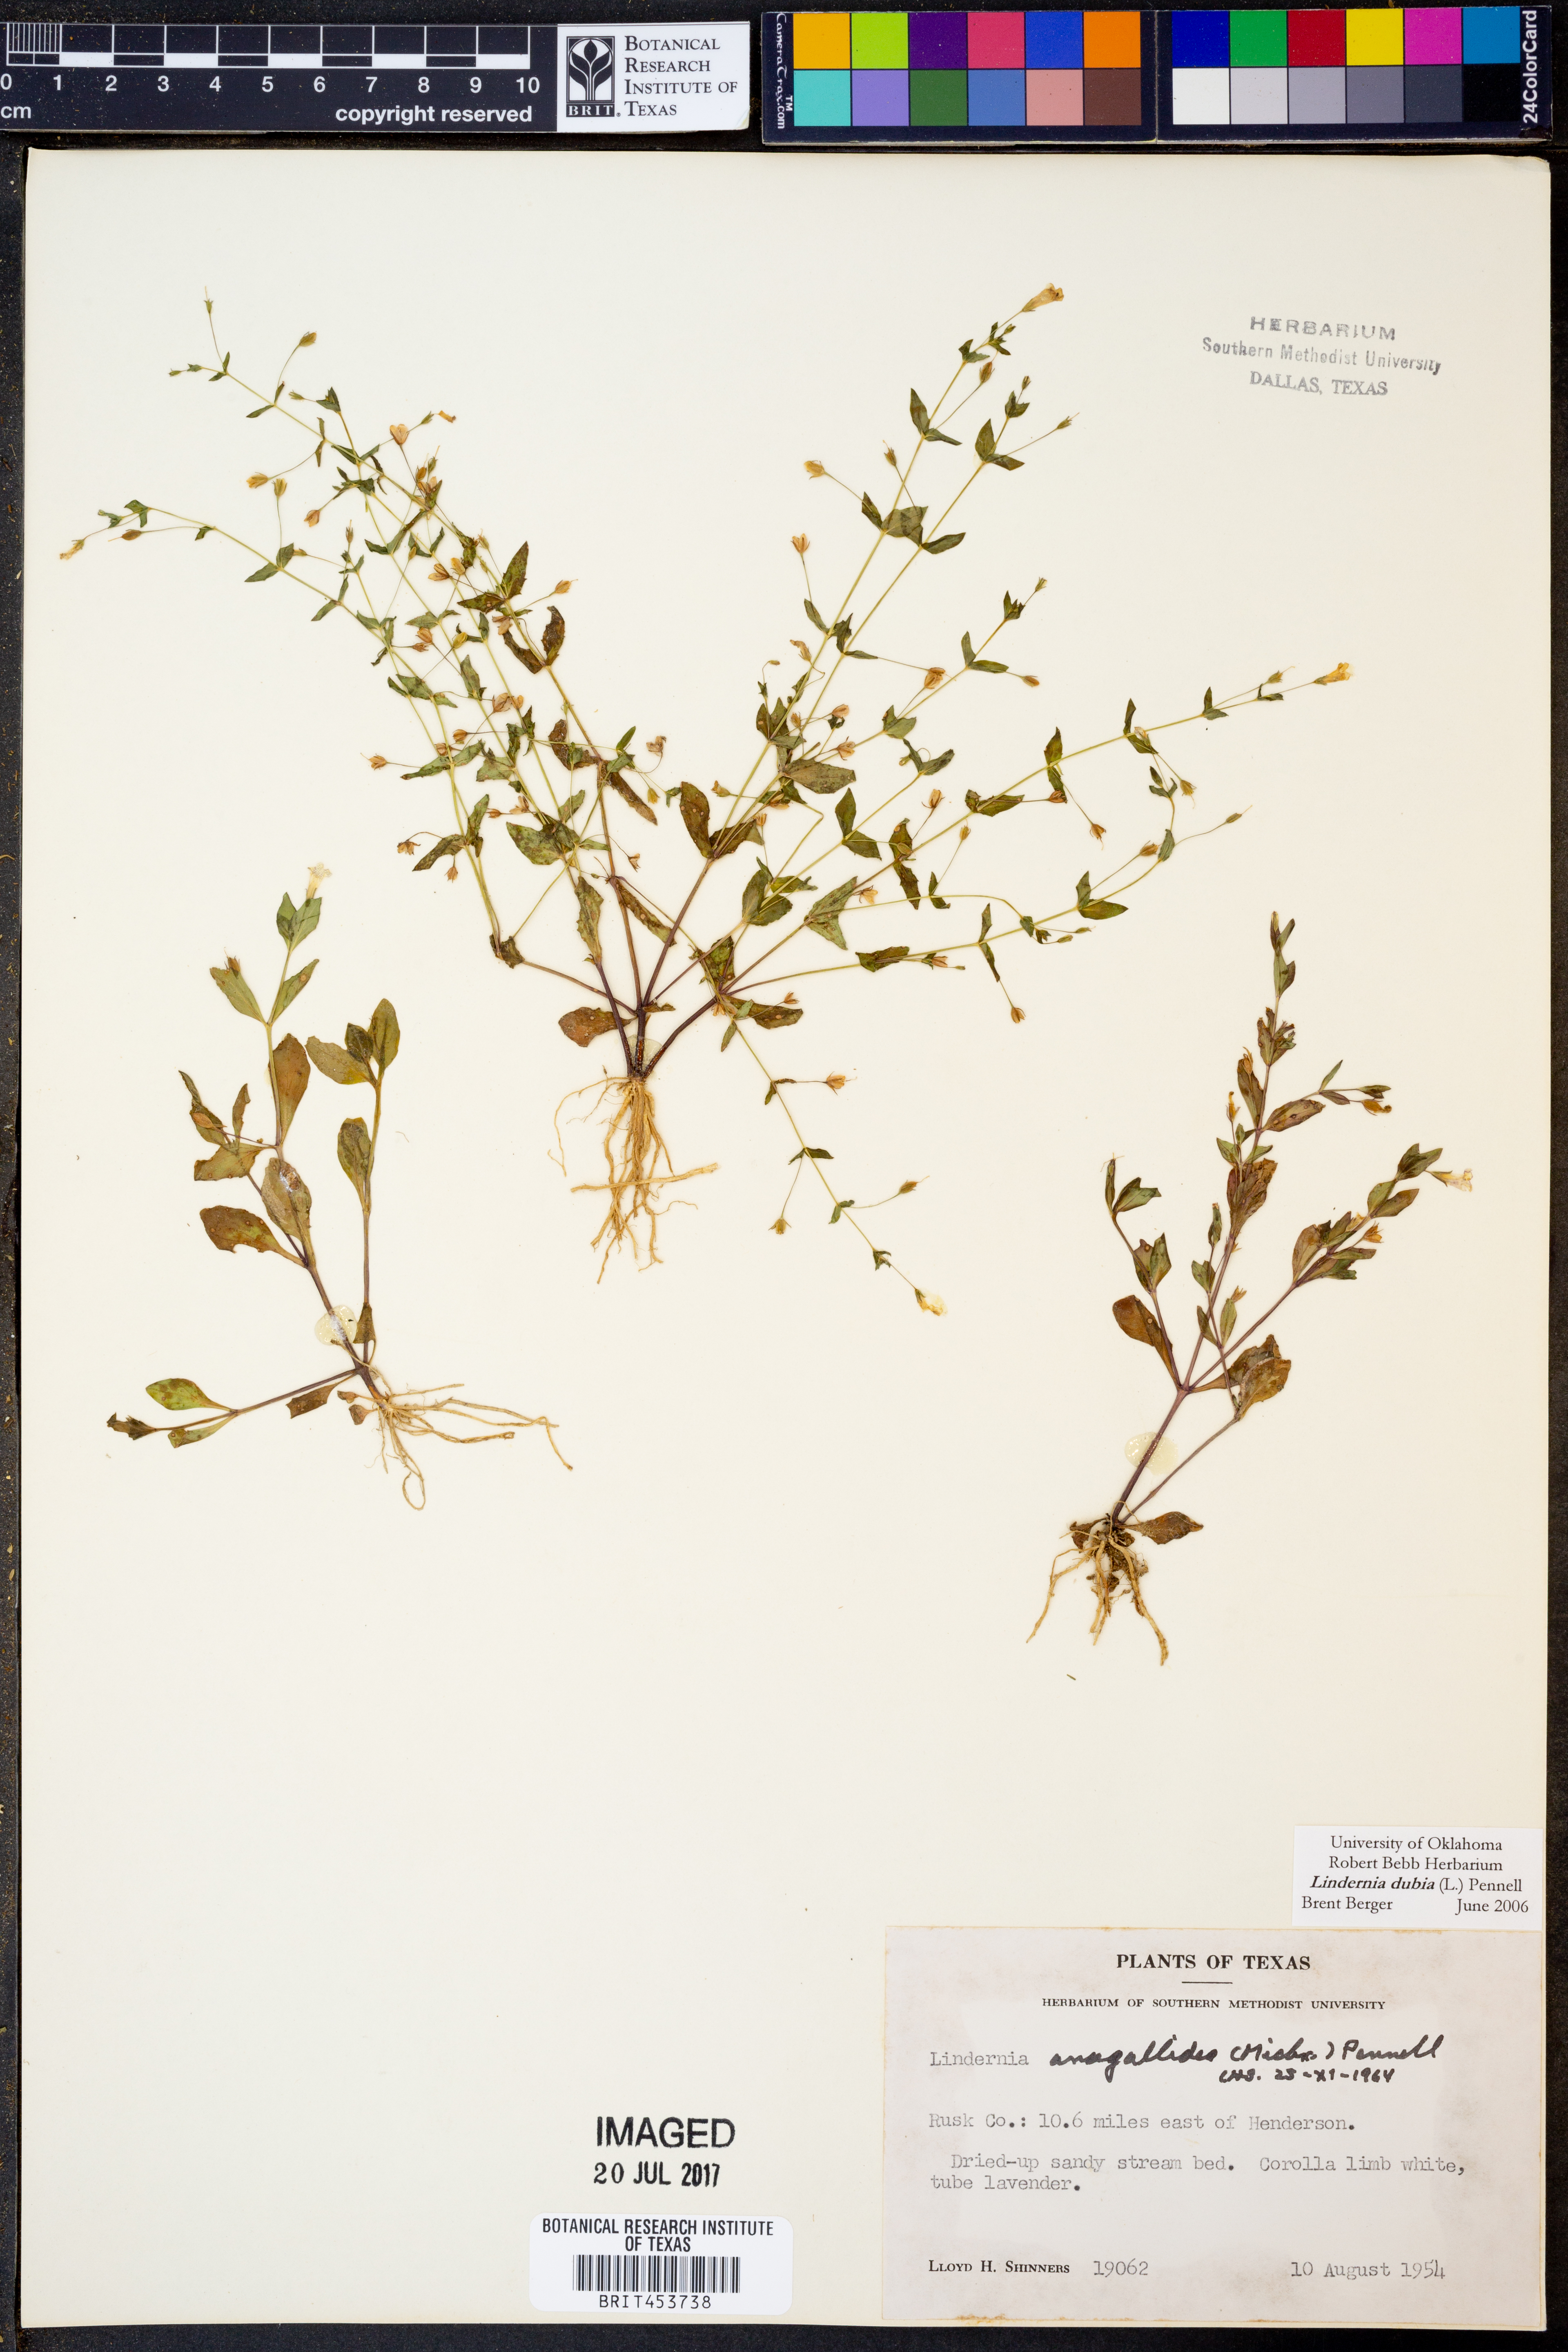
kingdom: Plantae
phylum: Tracheophyta
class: Magnoliopsida
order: Lamiales
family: Linderniaceae
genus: Lindernia
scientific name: Lindernia dubia
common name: Annual false pimpernel
